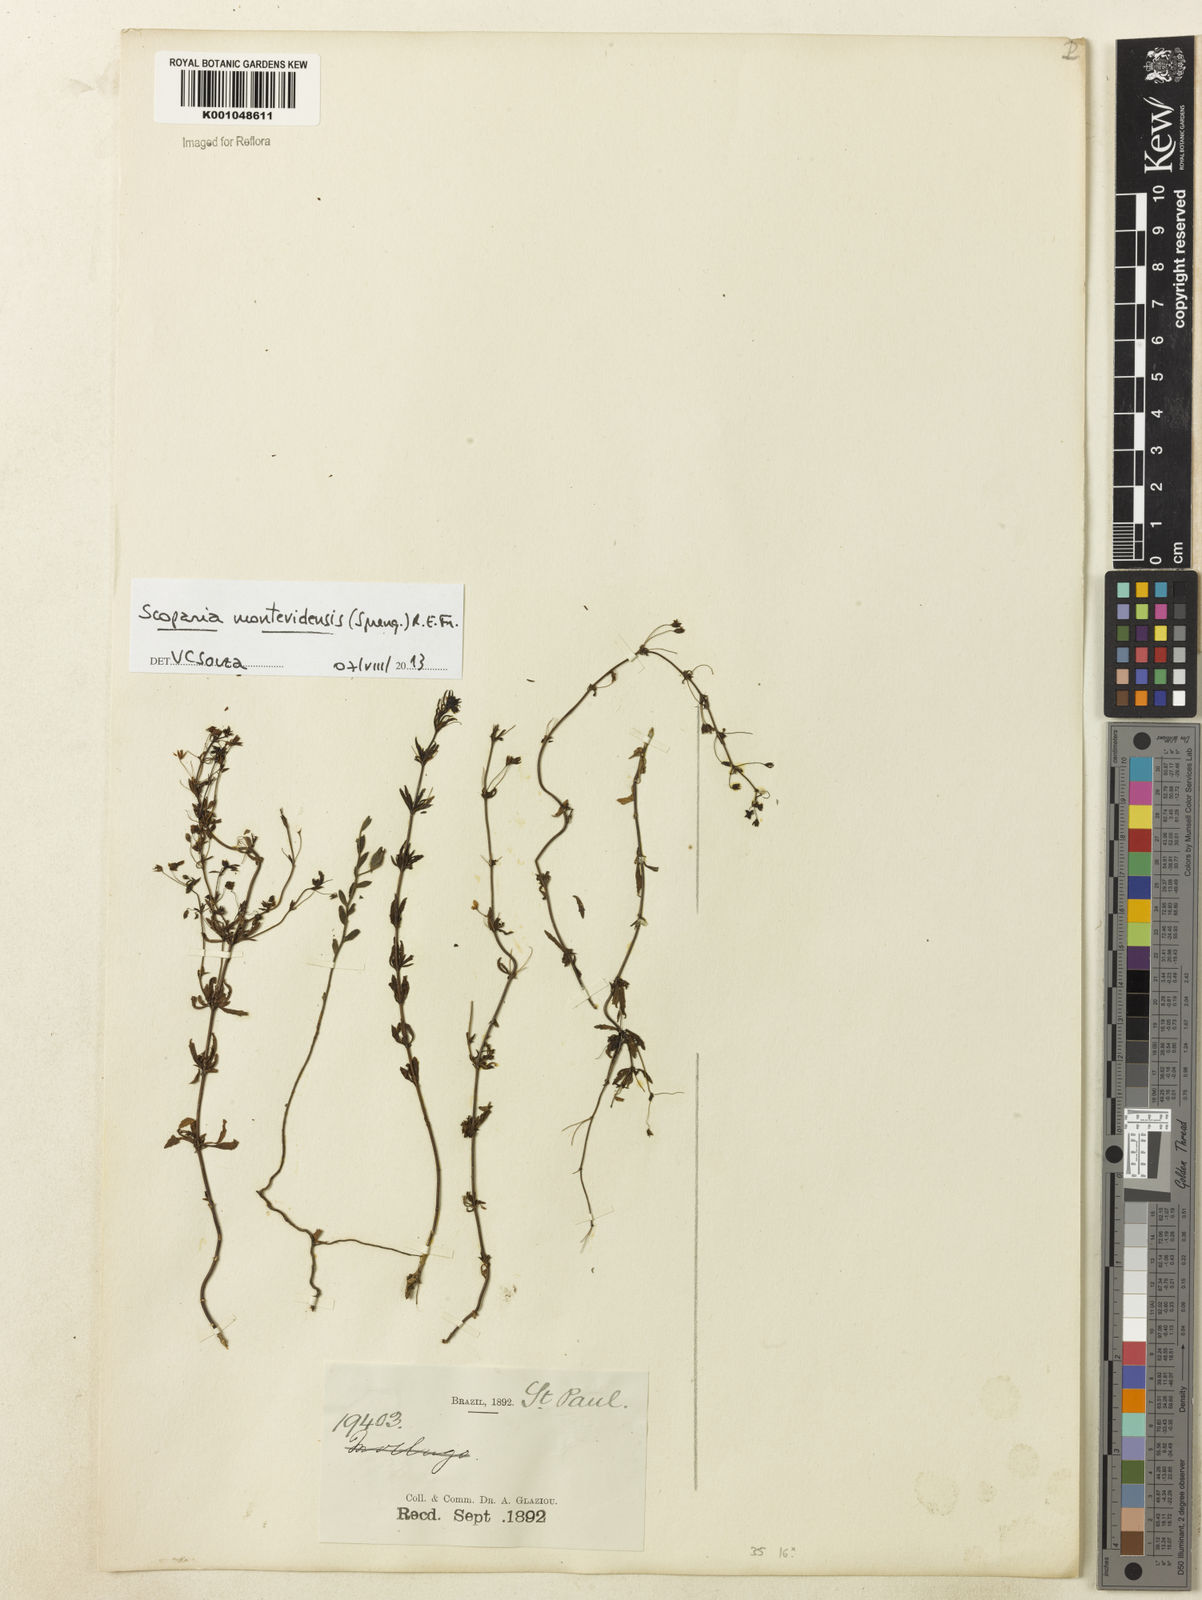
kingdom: Plantae
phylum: Tracheophyta
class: Magnoliopsida
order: Lamiales
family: Plantaginaceae
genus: Scoparia
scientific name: Scoparia montevidensis
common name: Broomwort
